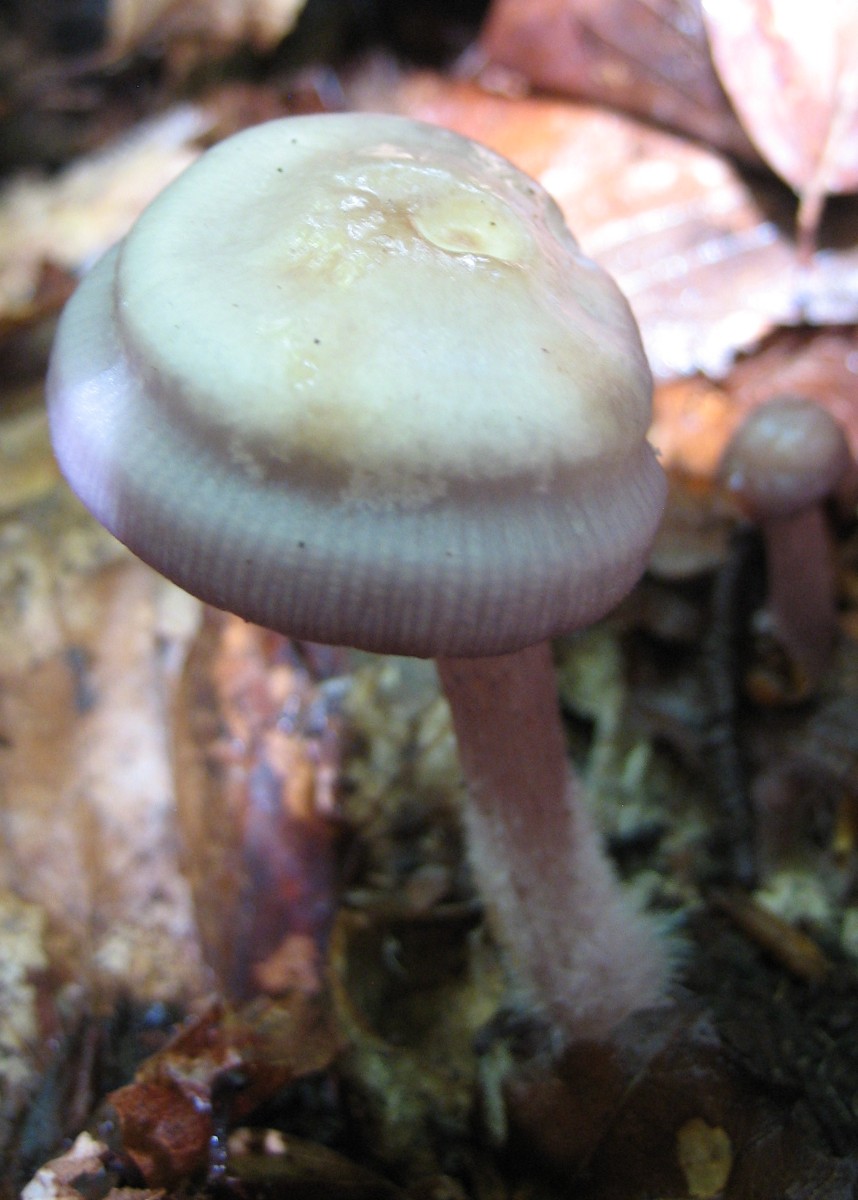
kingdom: Fungi
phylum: Basidiomycota
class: Agaricomycetes
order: Agaricales
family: Mycenaceae
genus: Mycena
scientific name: Mycena pelianthina
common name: mørkbladet huesvamp
